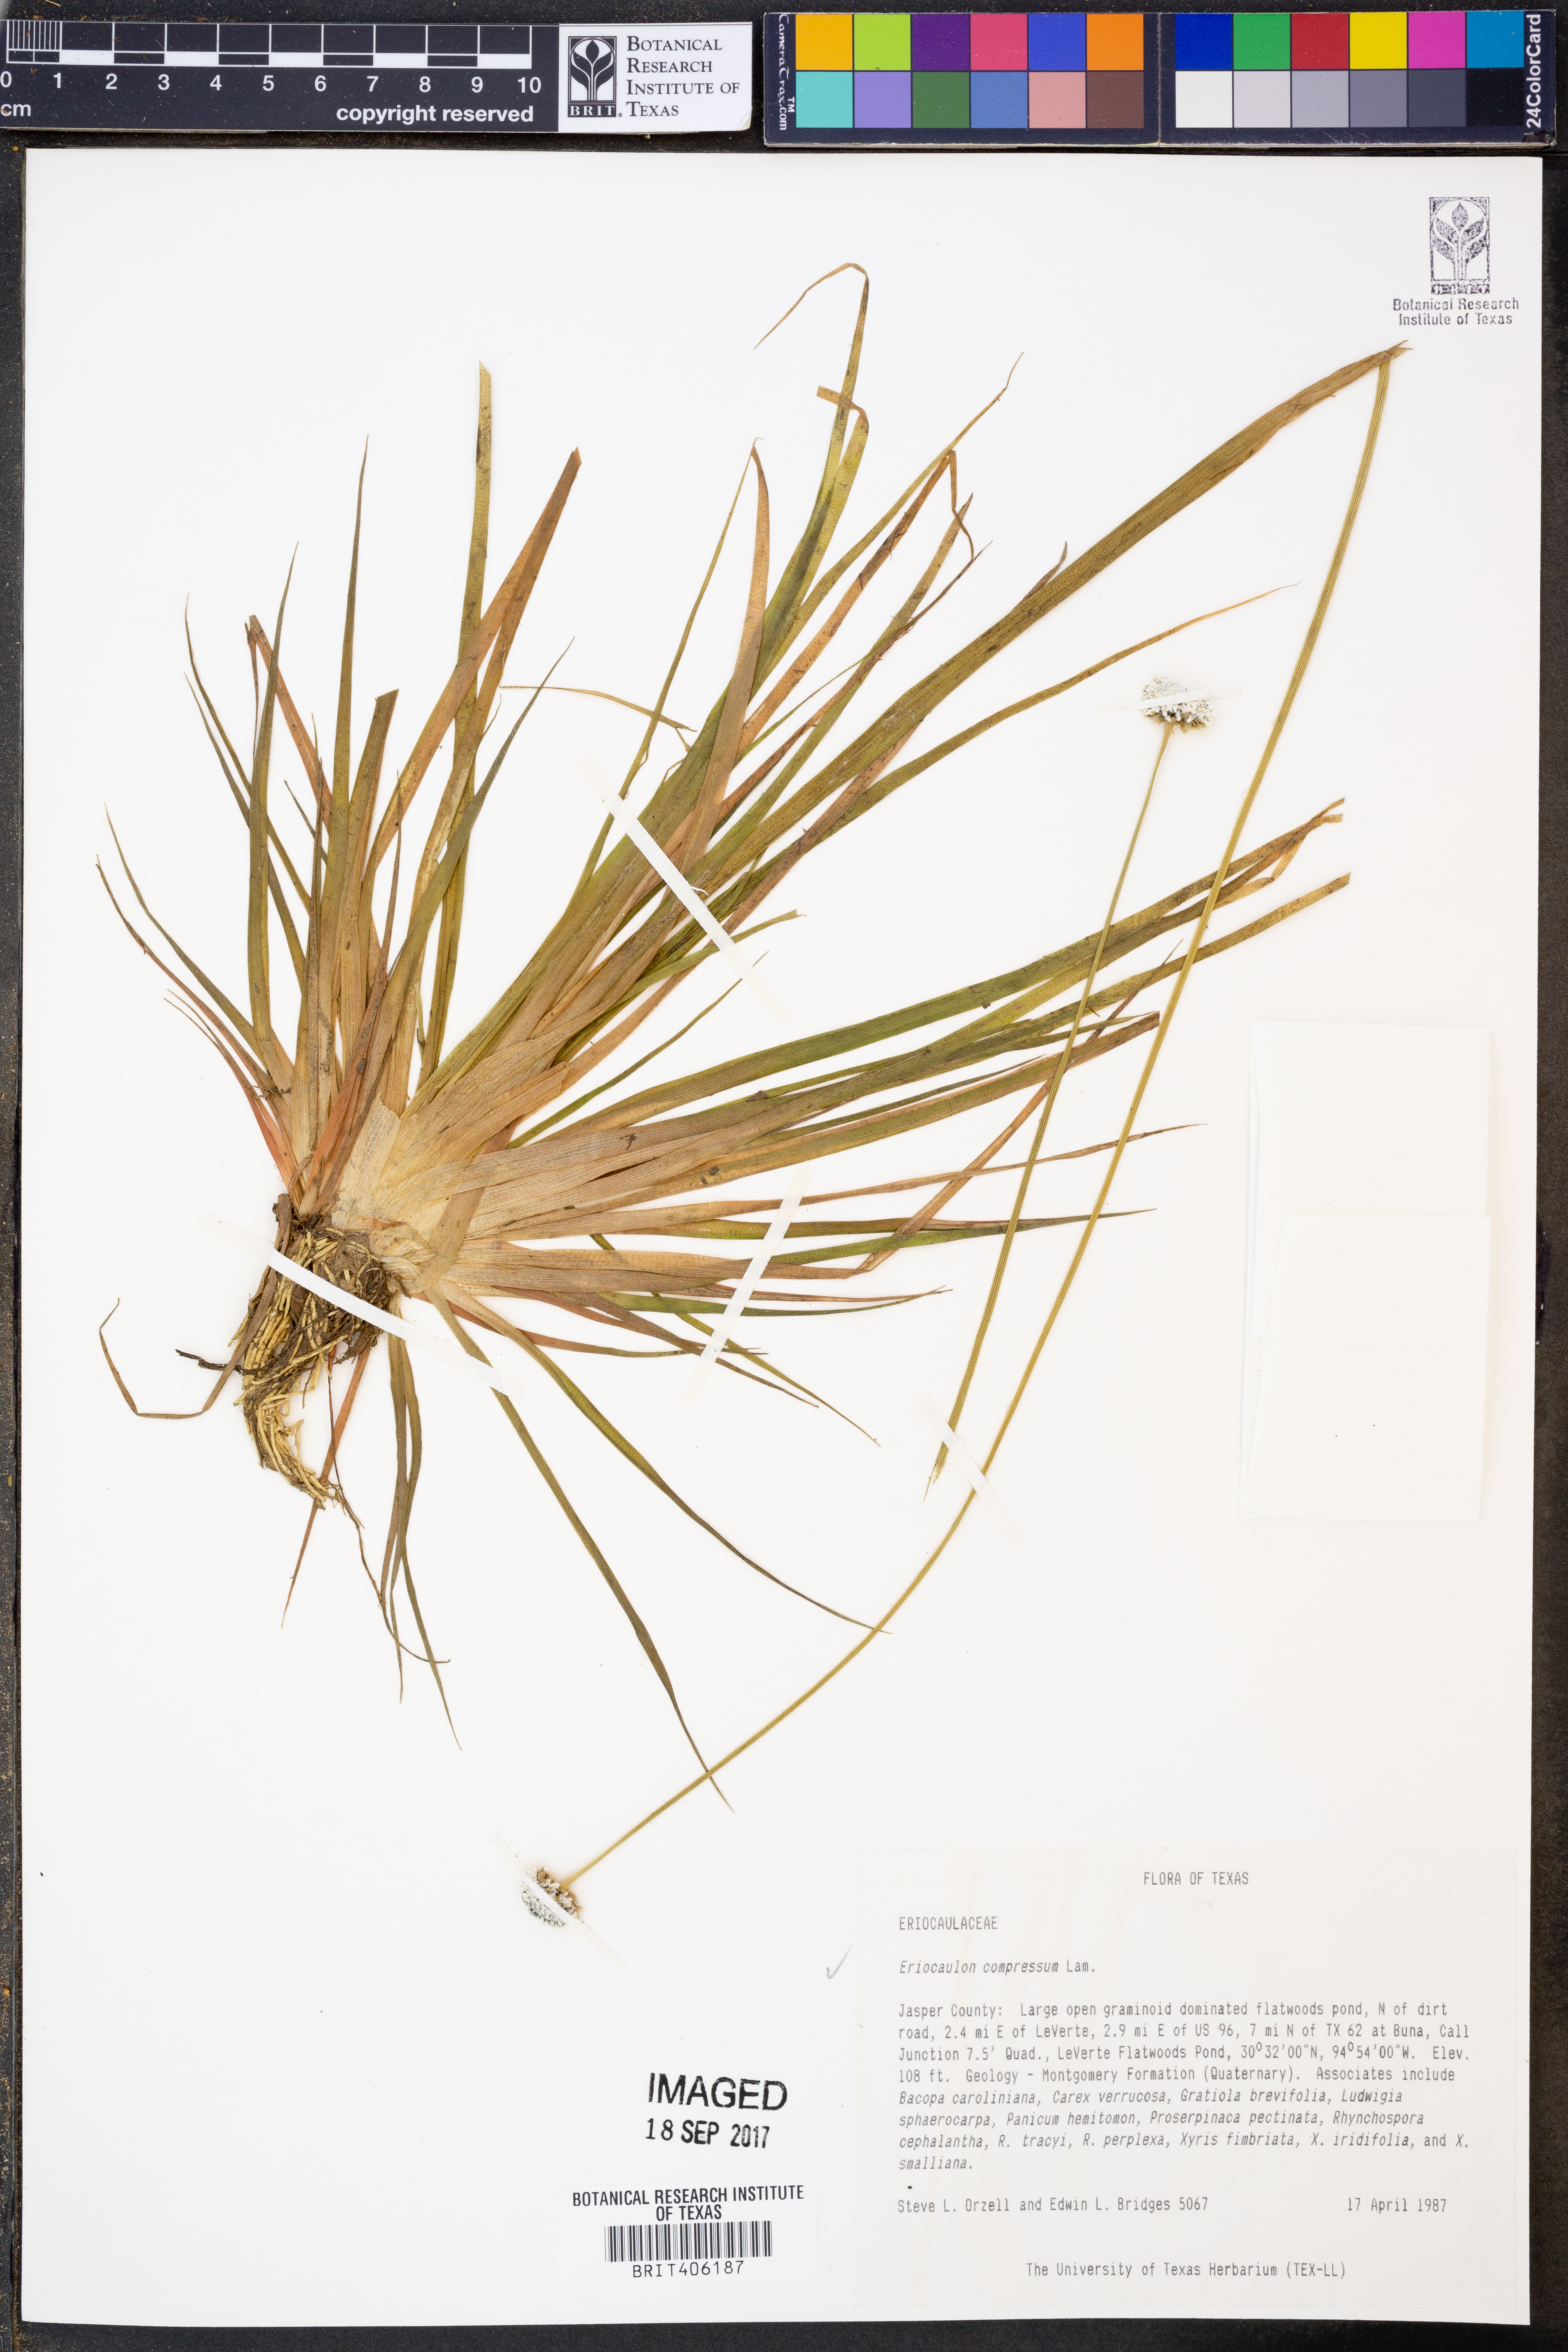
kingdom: Plantae
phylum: Tracheophyta
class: Liliopsida
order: Poales
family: Eriocaulaceae
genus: Eriocaulon
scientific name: Eriocaulon compressum
